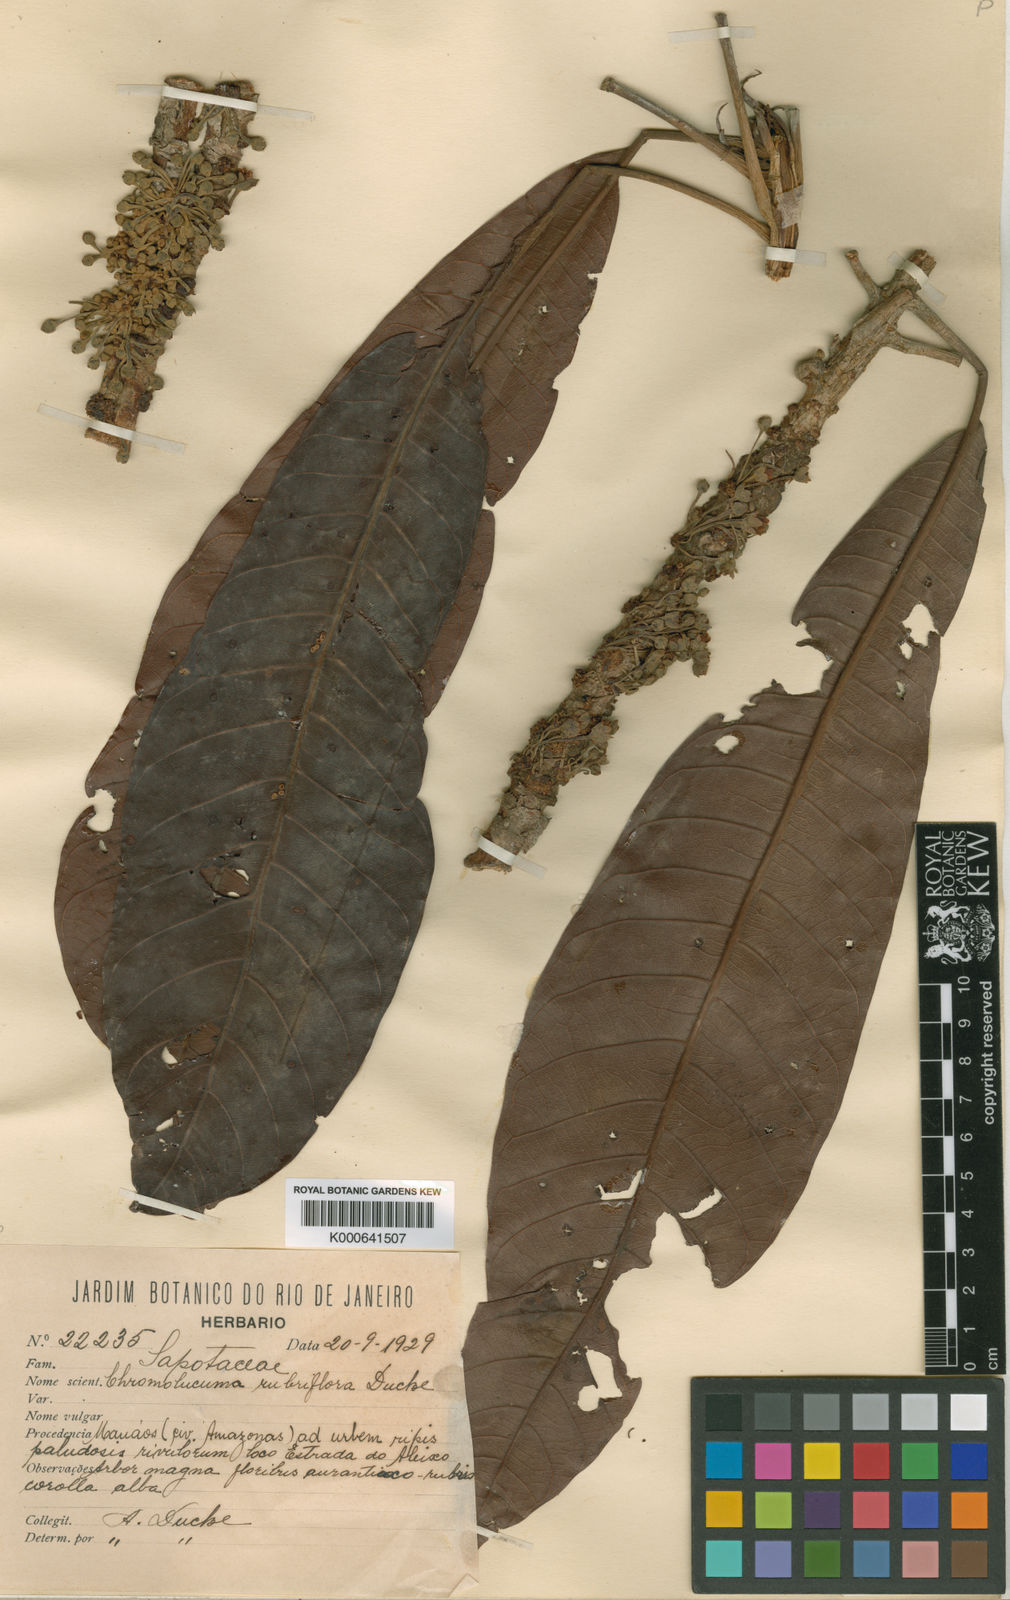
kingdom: Plantae
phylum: Tracheophyta
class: Magnoliopsida
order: Ericales
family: Sapotaceae
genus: Chromolucuma
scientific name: Chromolucuma rubriflora
